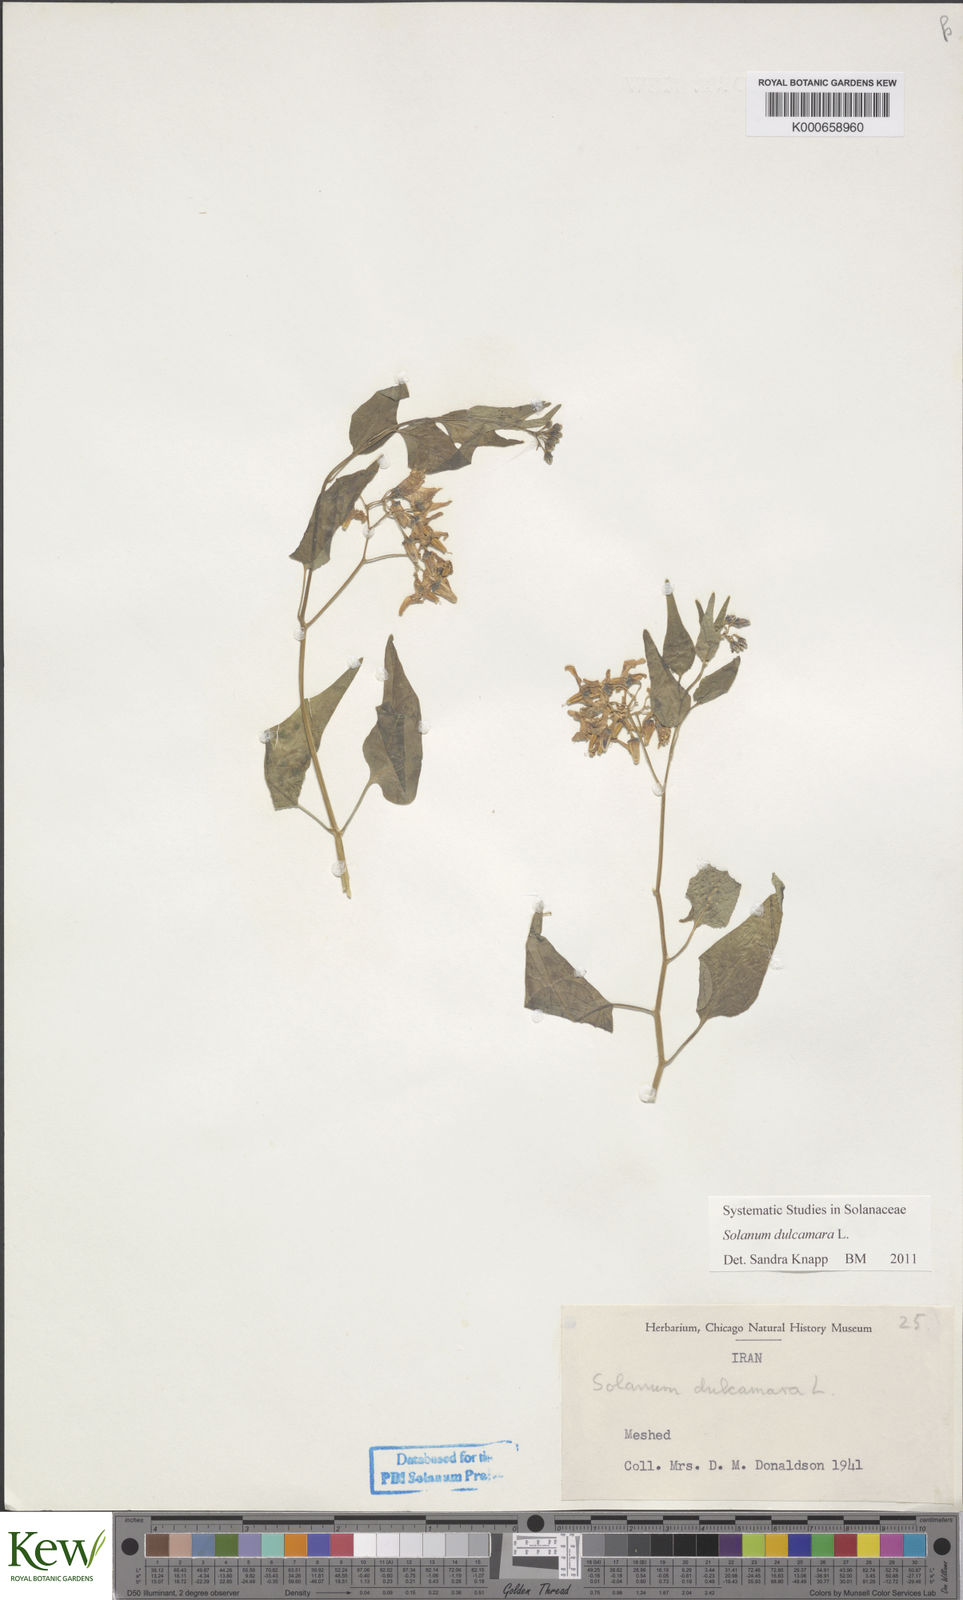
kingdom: Plantae
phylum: Tracheophyta
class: Magnoliopsida
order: Solanales
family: Solanaceae
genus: Solanum
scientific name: Solanum dulcamara
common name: Climbing nightshade
